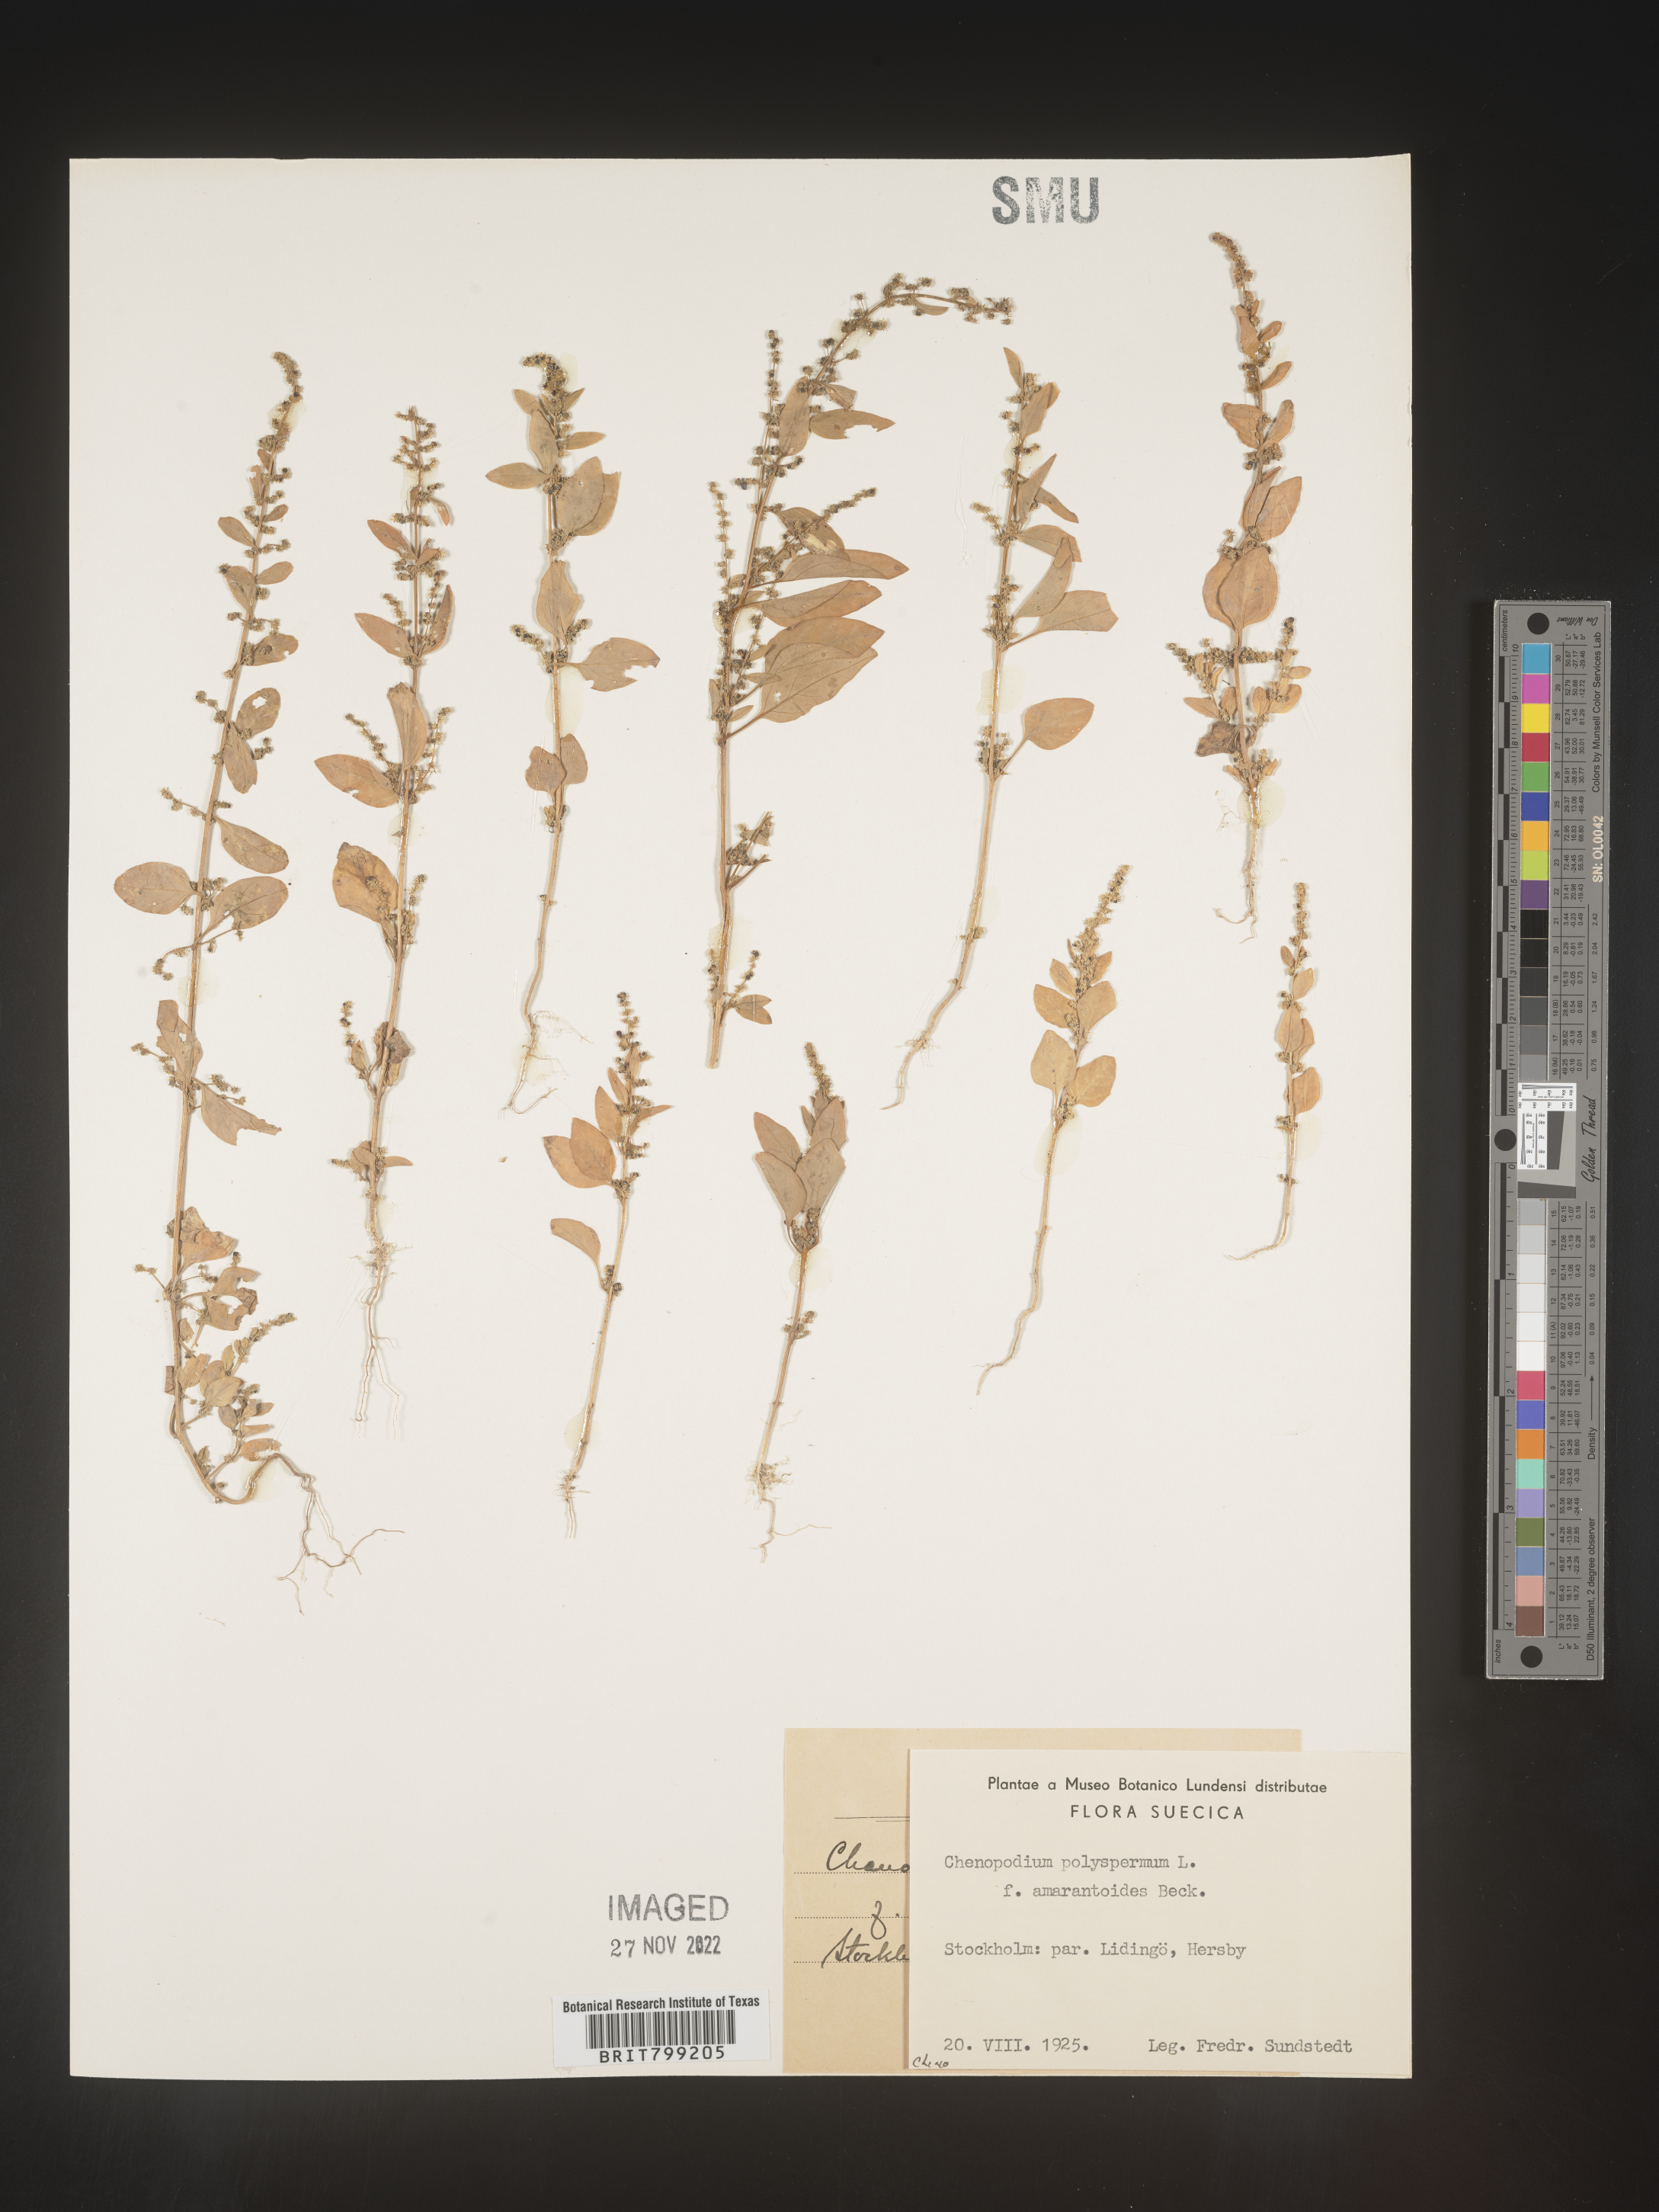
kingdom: Plantae
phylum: Tracheophyta
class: Magnoliopsida
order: Caryophyllales
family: Amaranthaceae
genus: Chenopodium
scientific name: Chenopodium
